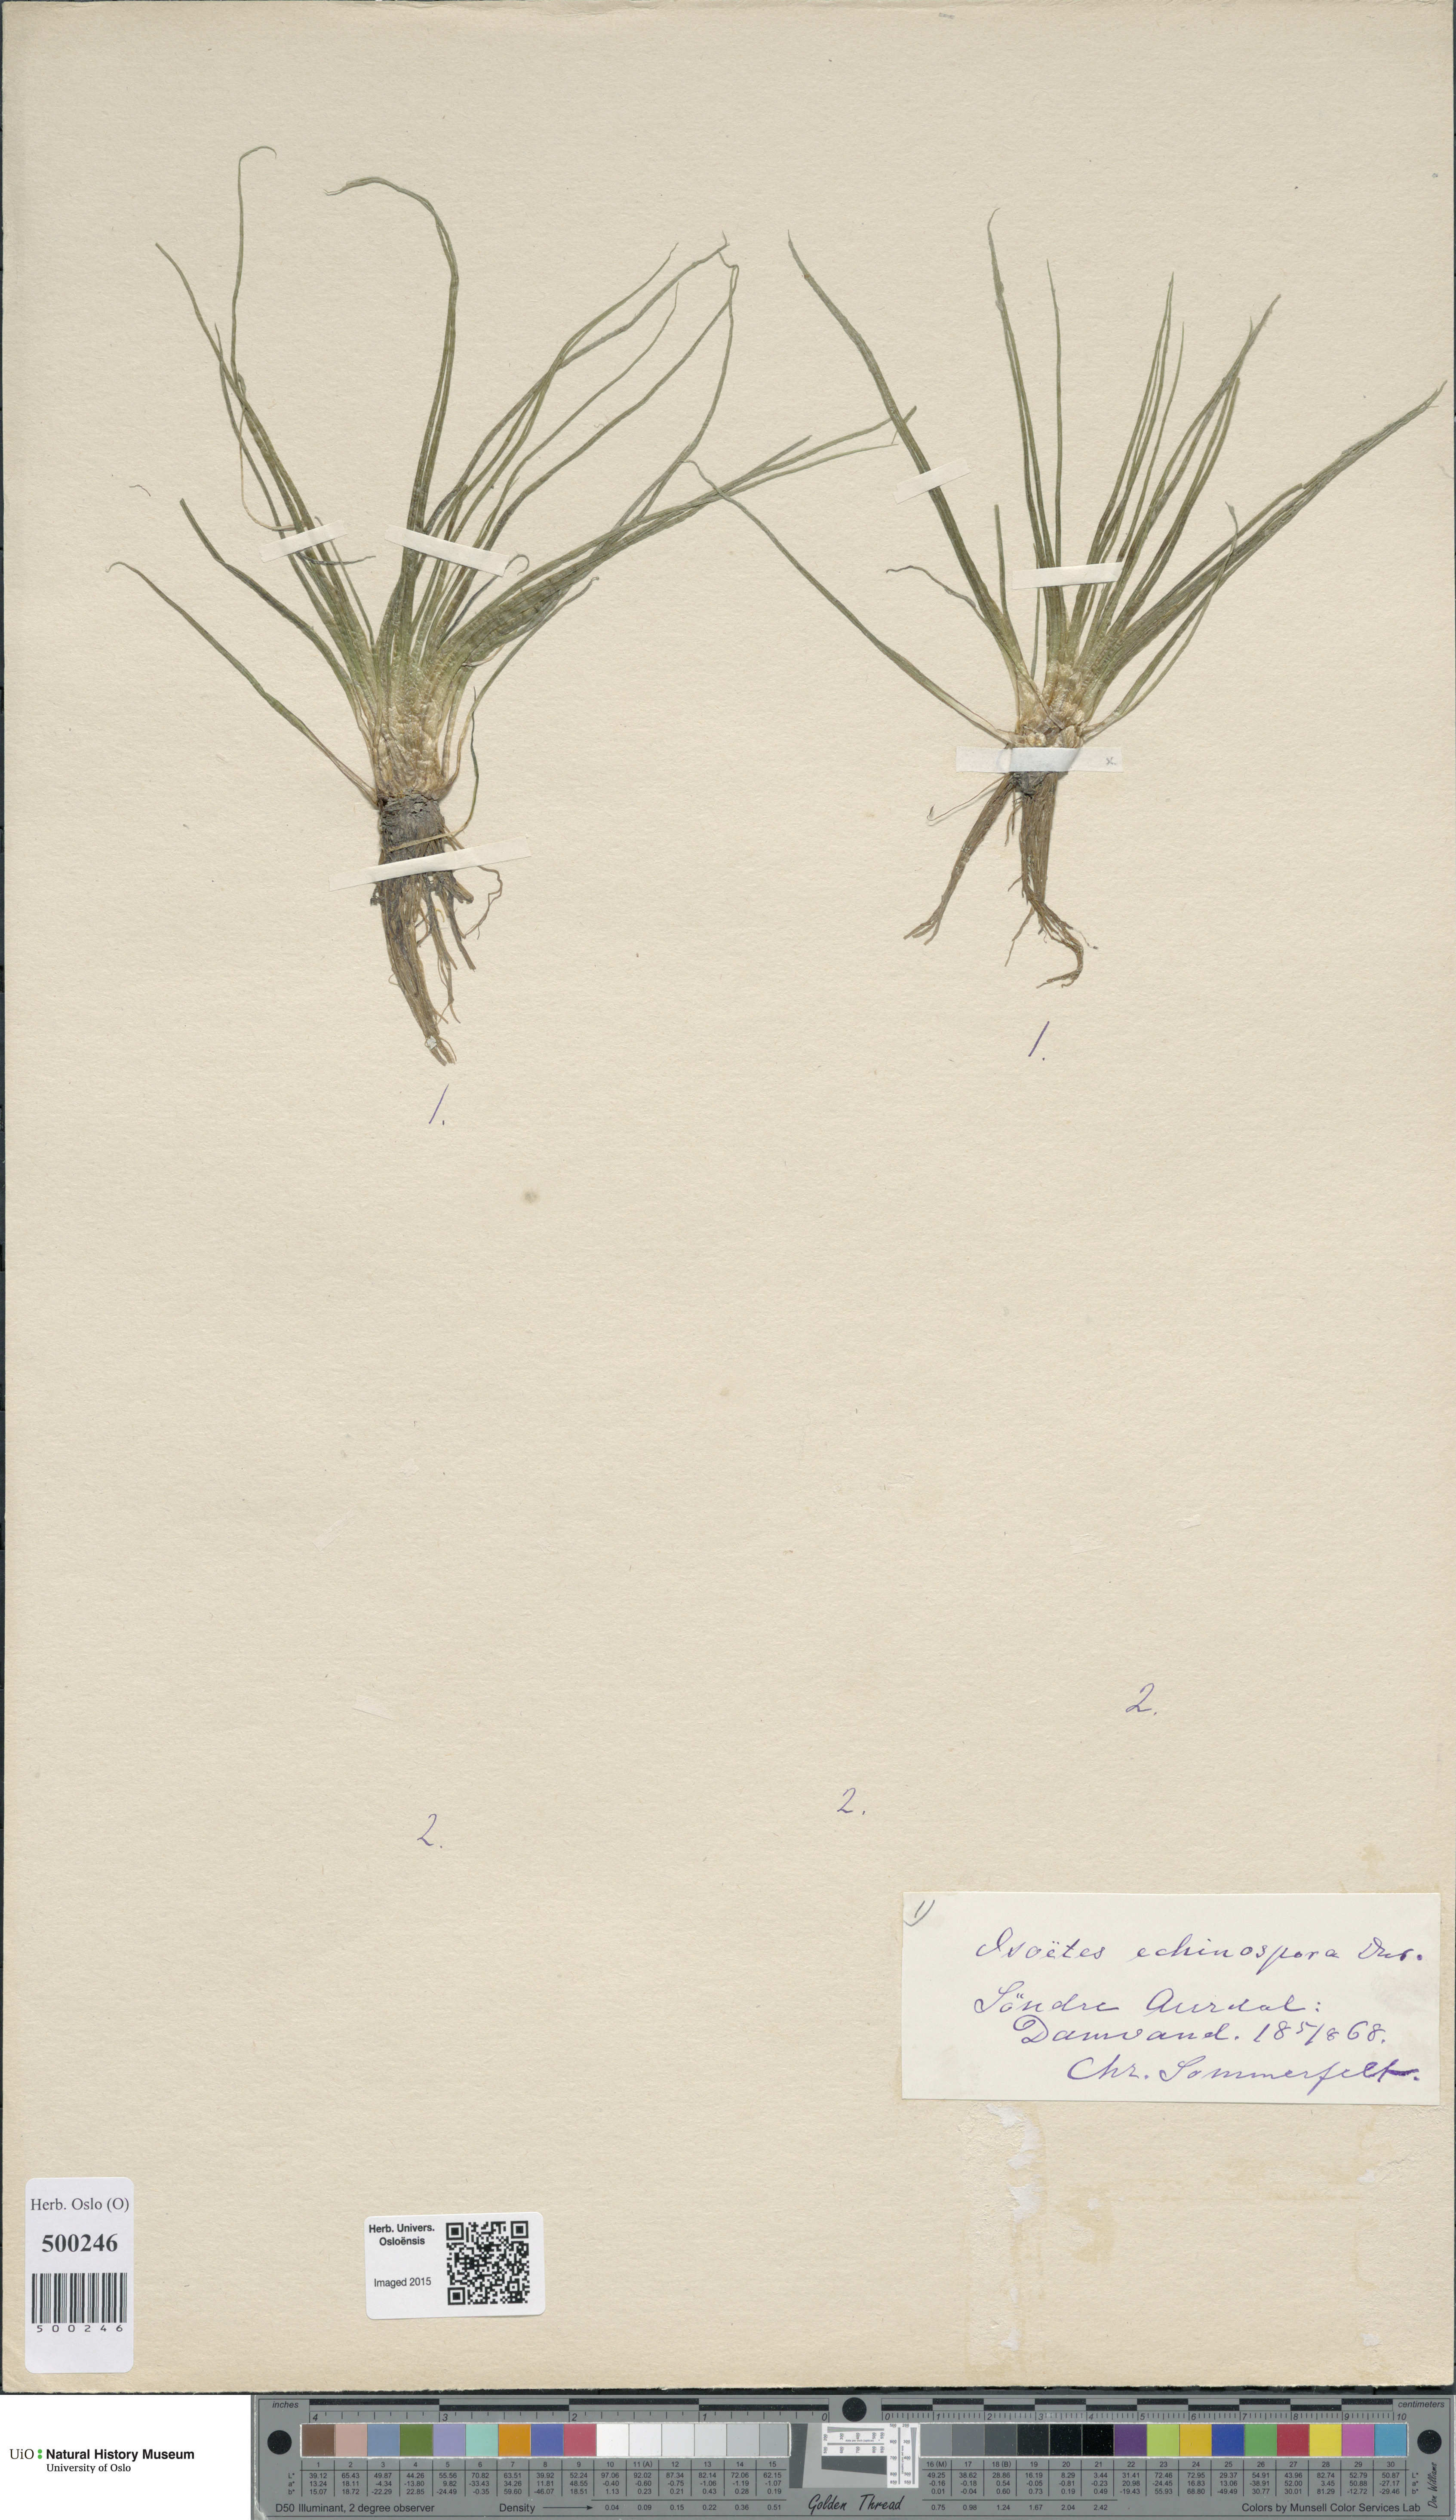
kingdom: Plantae
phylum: Tracheophyta
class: Lycopodiopsida
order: Isoetales
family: Isoetaceae
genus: Isoetes
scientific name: Isoetes echinospora
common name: Spring quillwort
